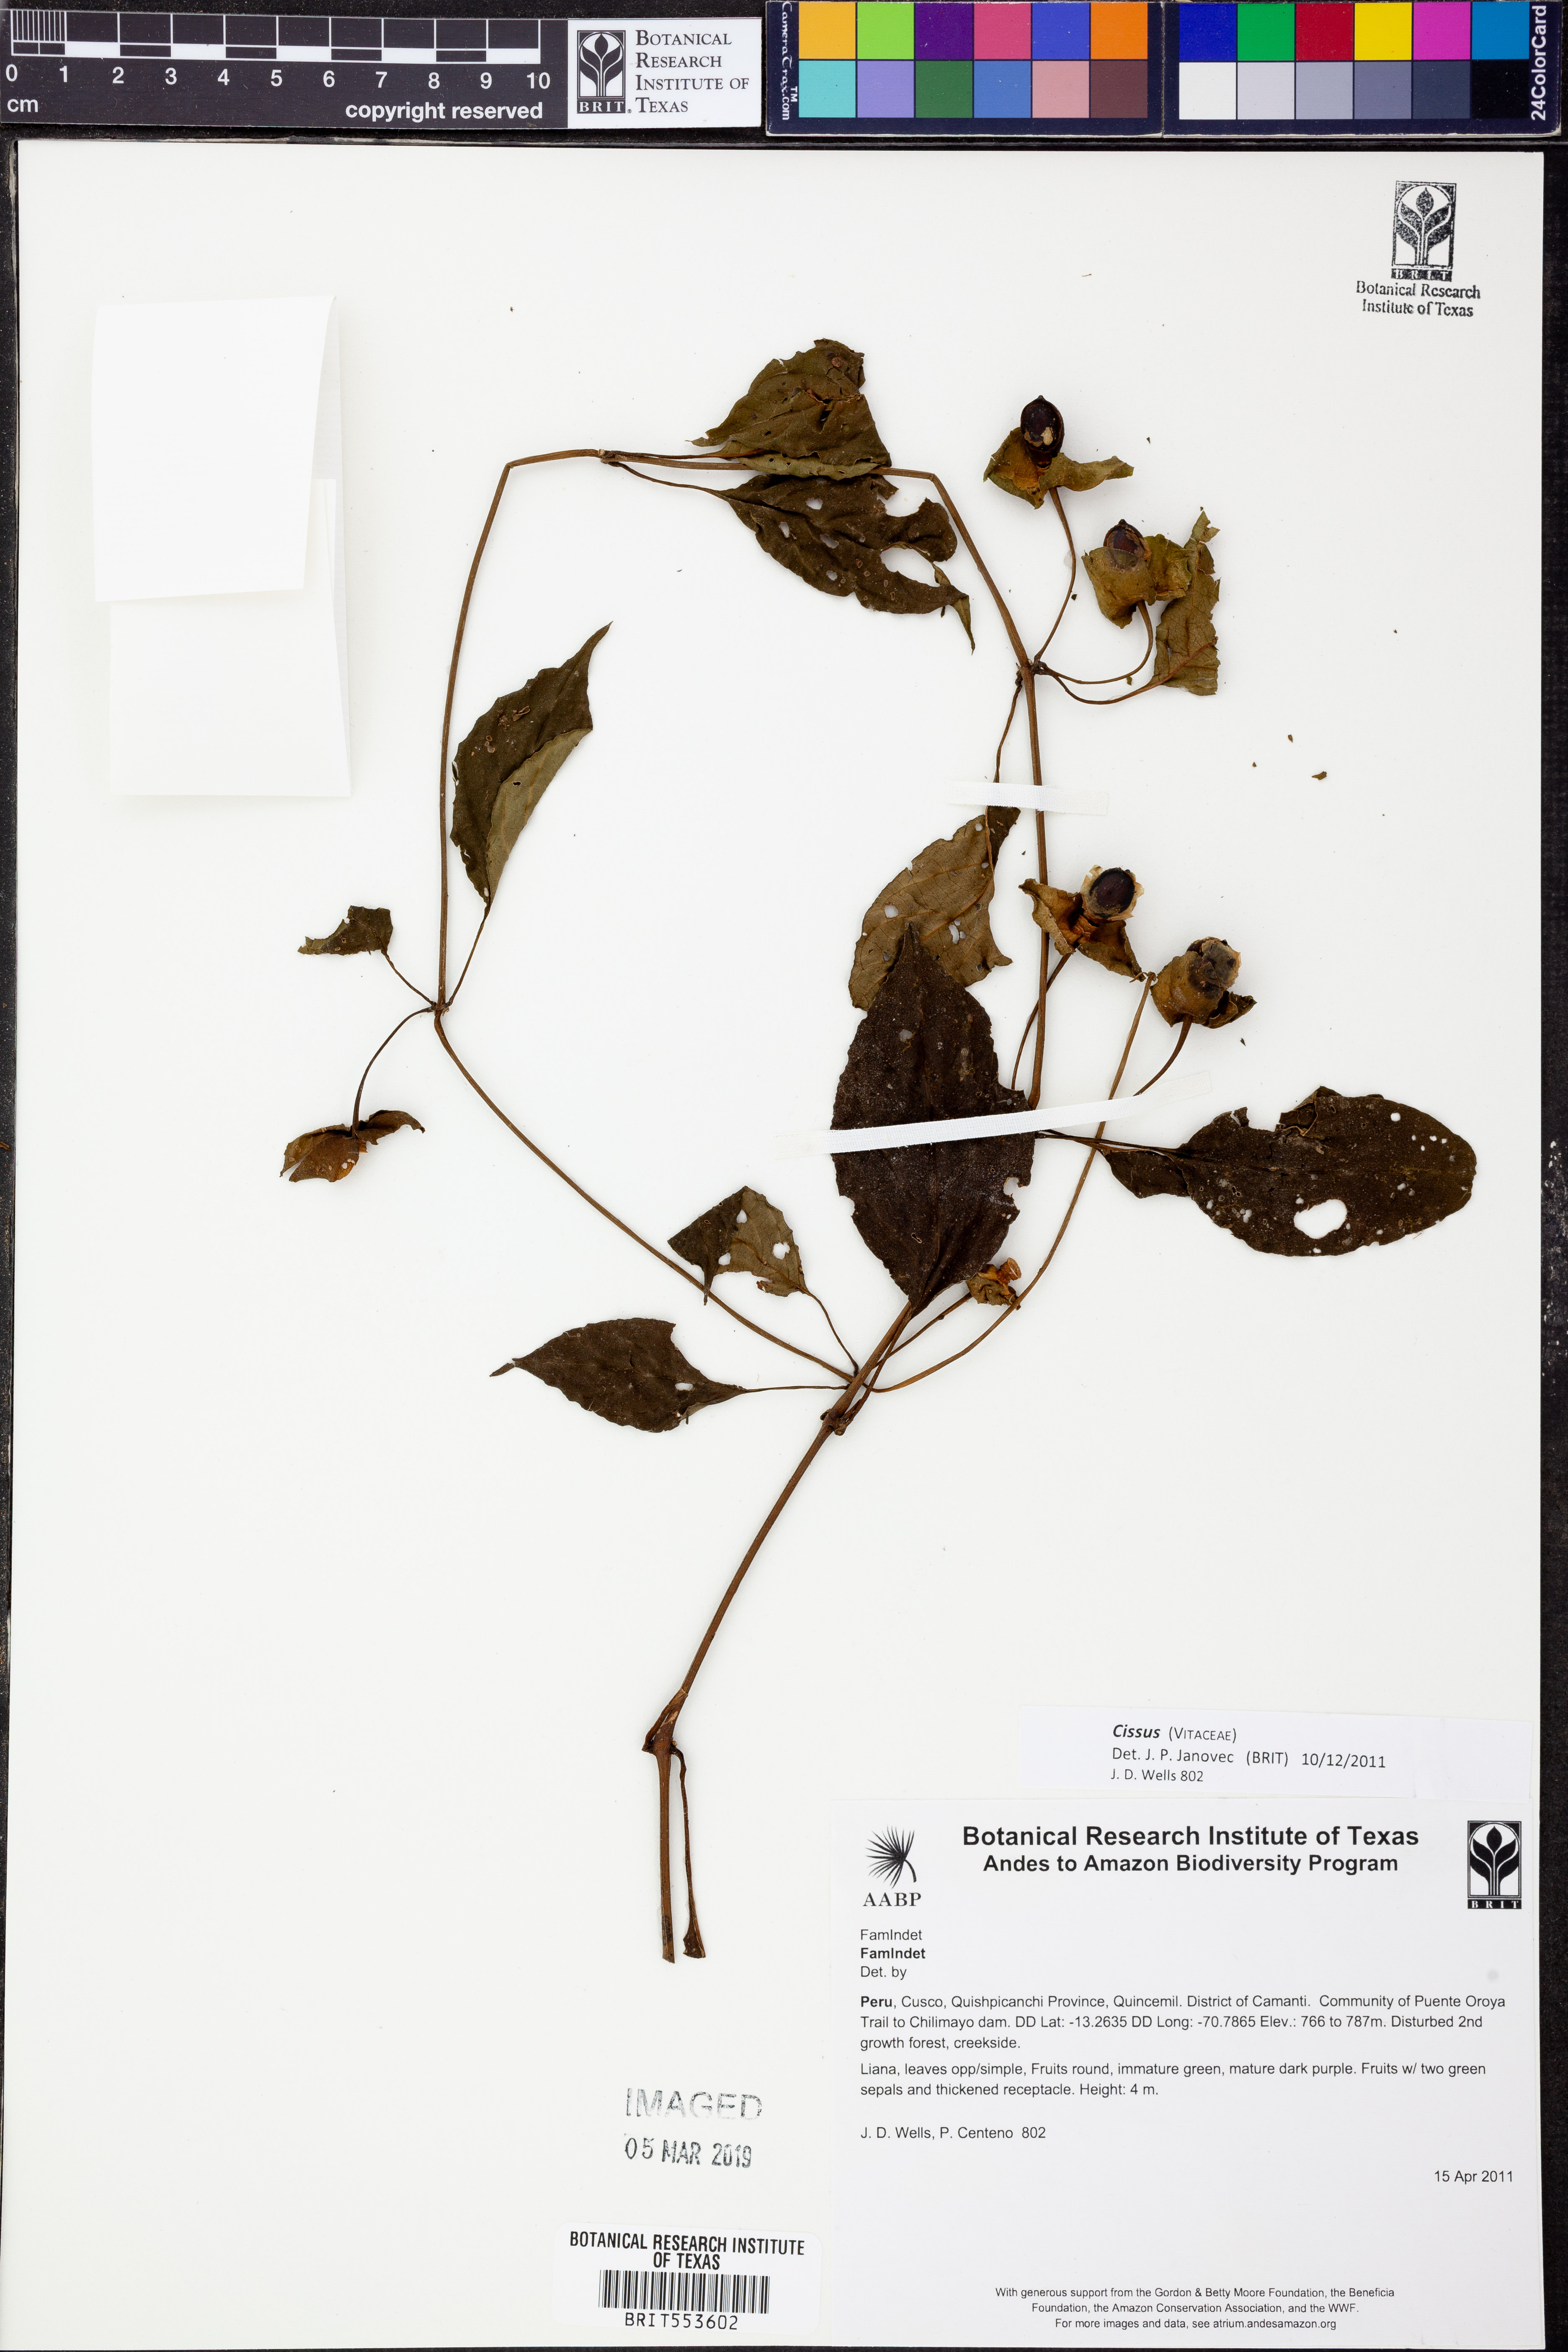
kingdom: Plantae
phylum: Tracheophyta
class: Magnoliopsida
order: Vitales
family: Vitaceae
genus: Cissus
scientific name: Cissus
